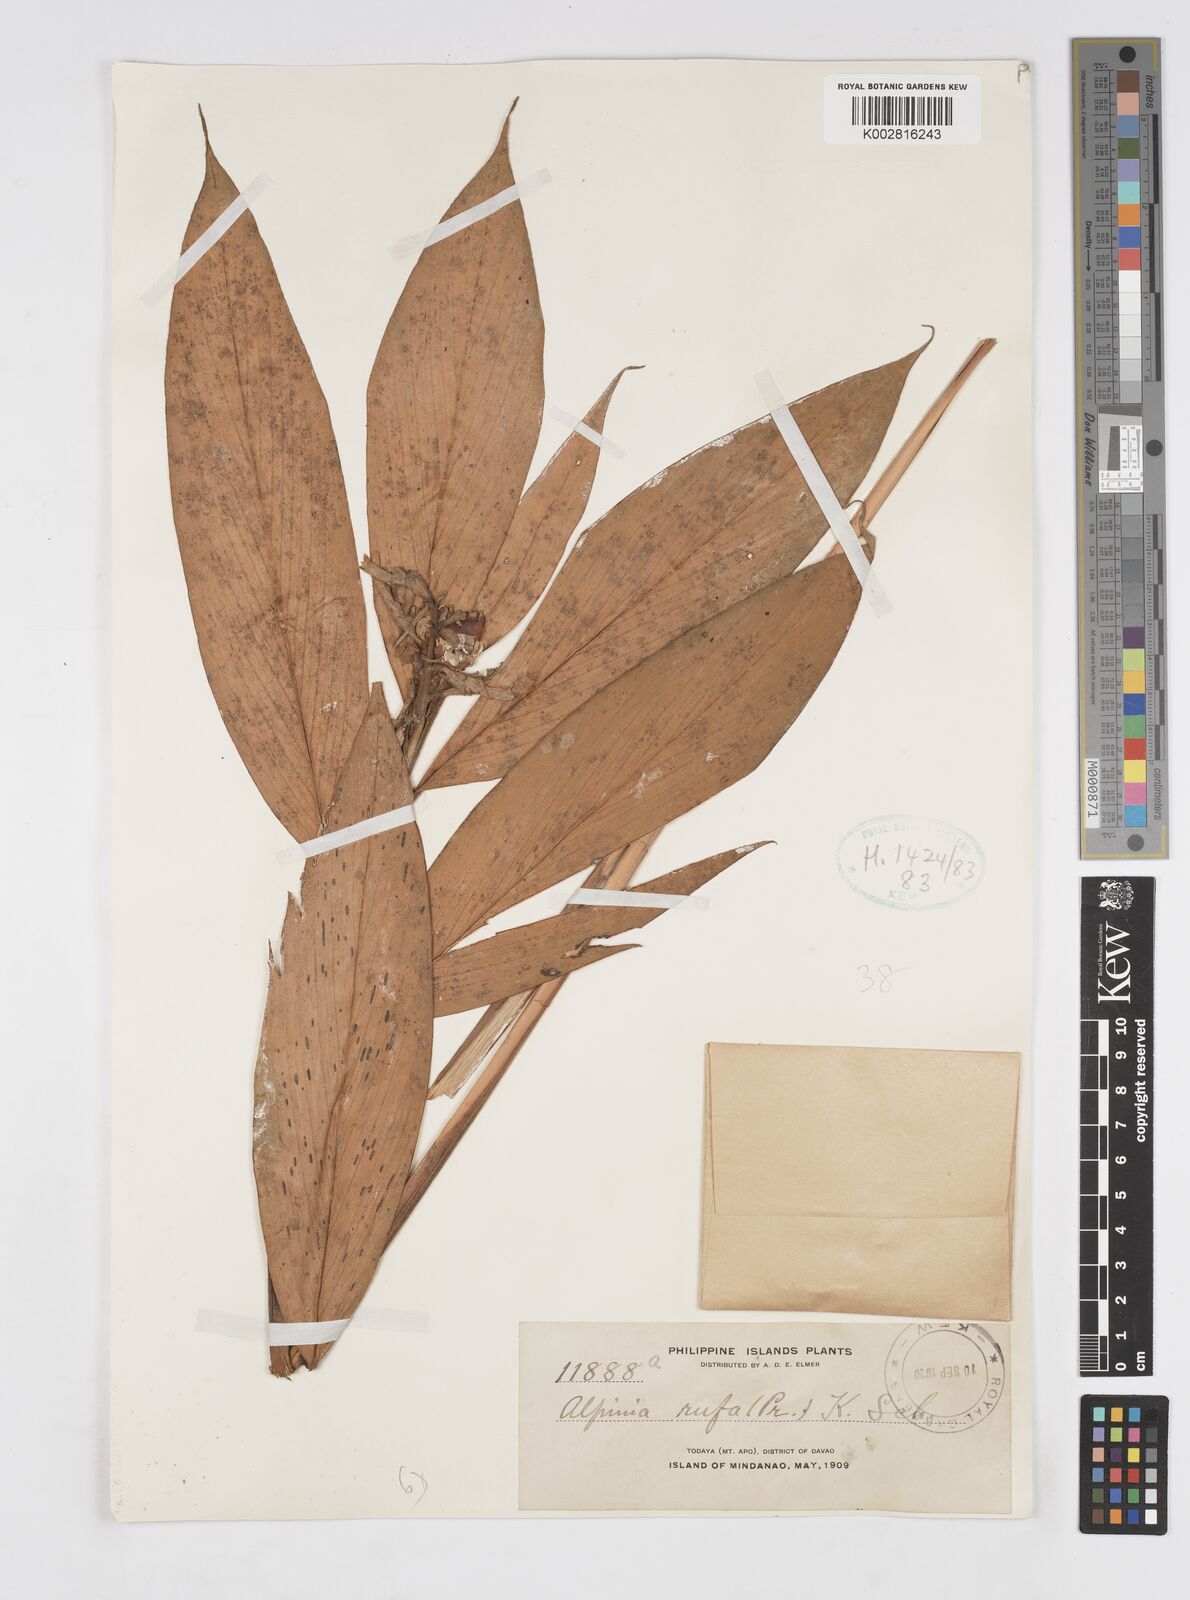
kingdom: Plantae
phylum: Tracheophyta
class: Liliopsida
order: Zingiberales
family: Zingiberaceae
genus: Alpinia
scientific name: Alpinia rufa
